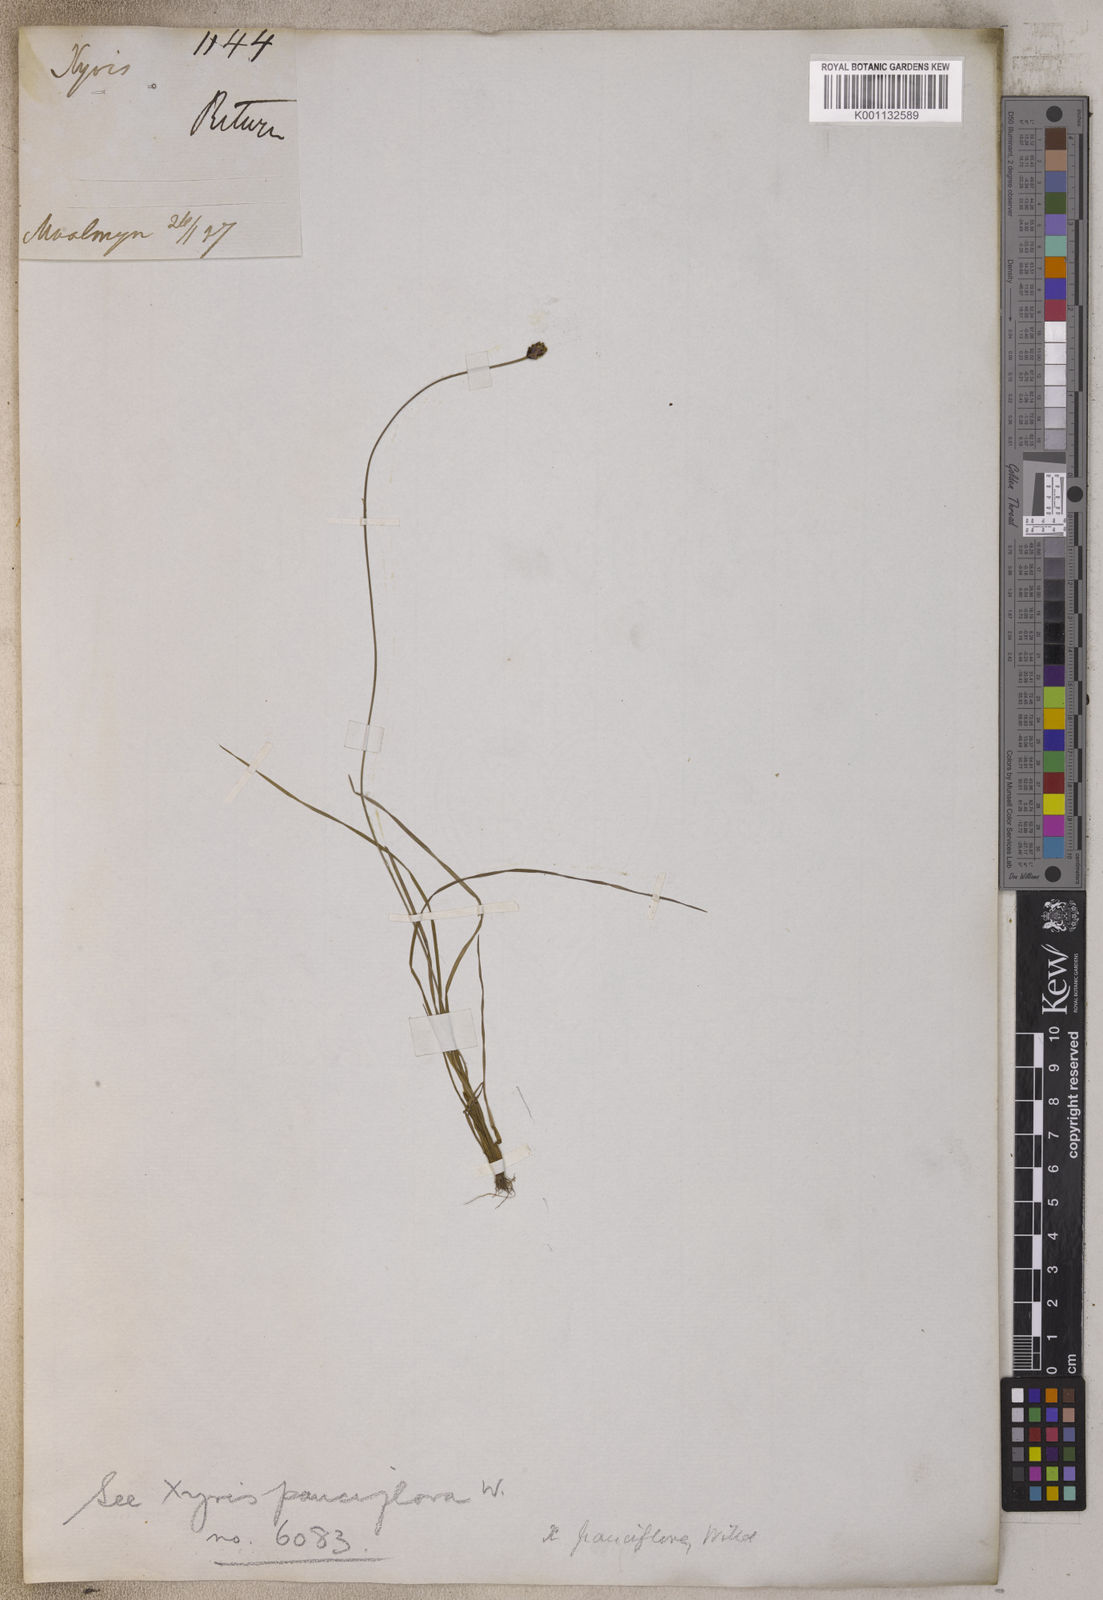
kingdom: Plantae
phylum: Tracheophyta
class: Liliopsida
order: Poales
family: Xyridaceae
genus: Xyris
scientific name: Xyris pauciflora
